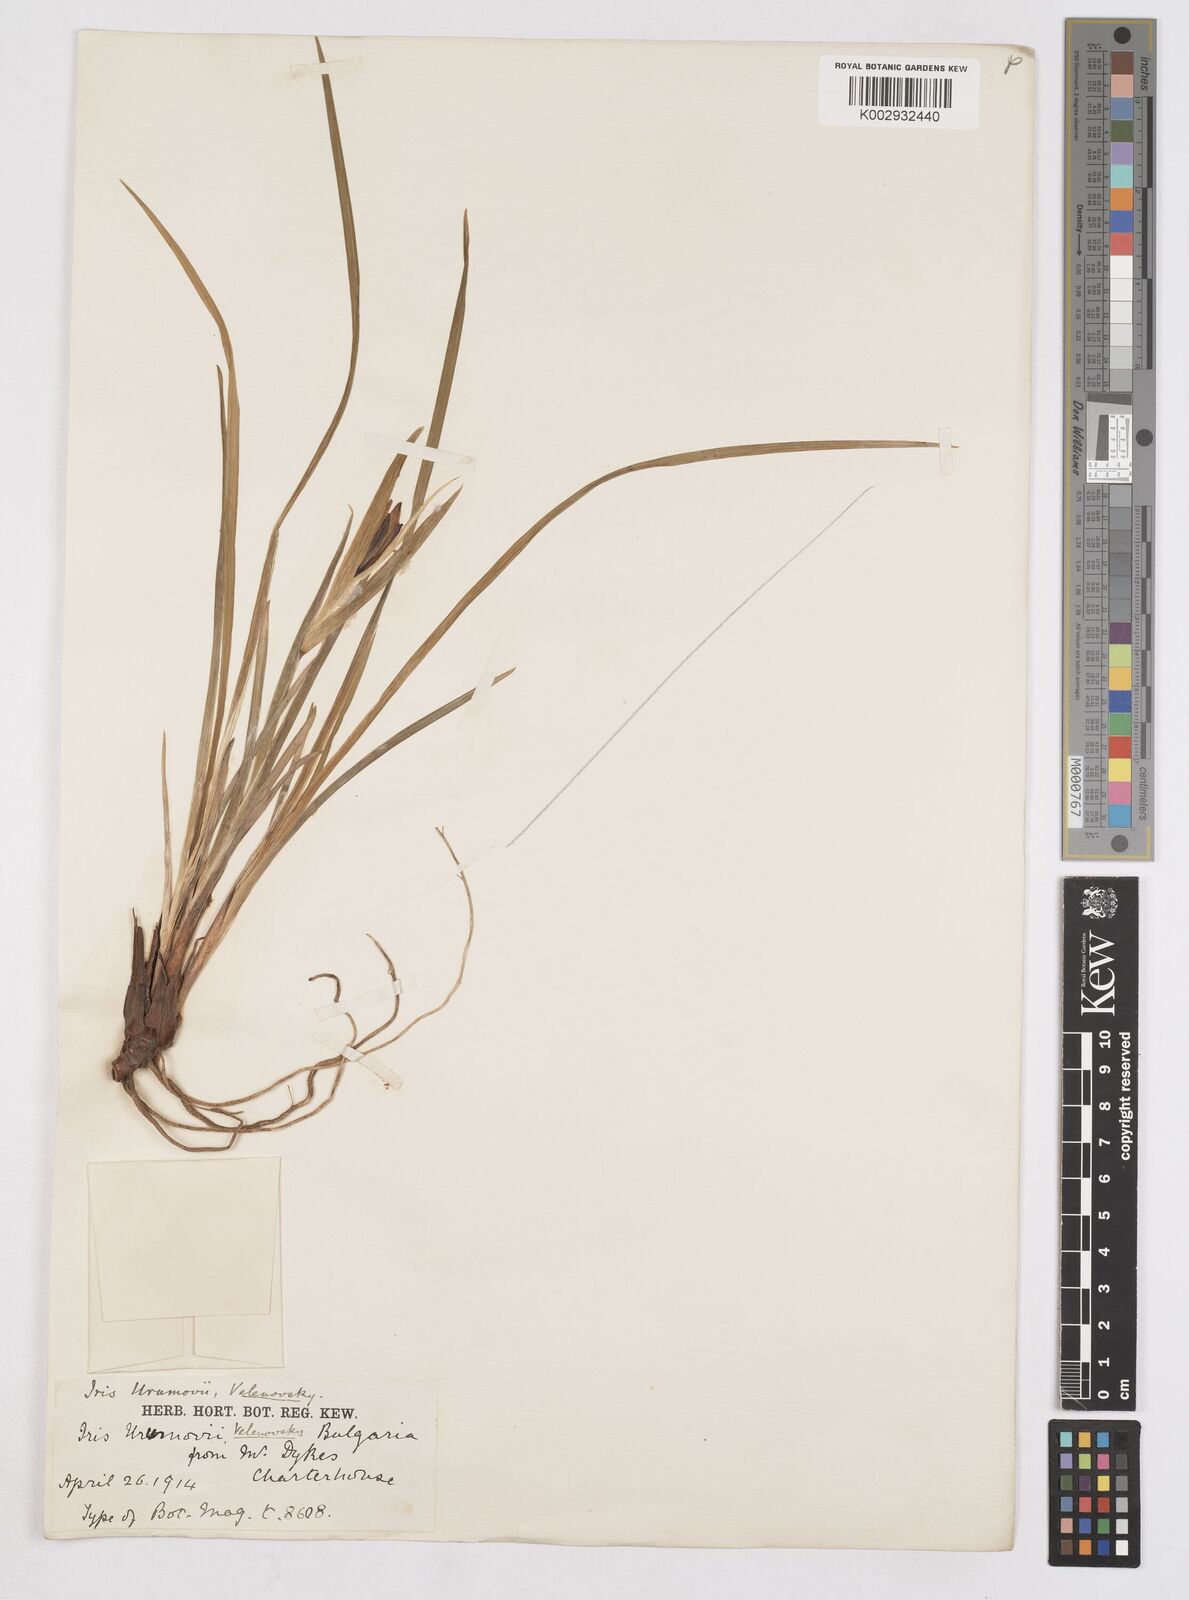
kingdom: Plantae
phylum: Tracheophyta
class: Liliopsida
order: Asparagales
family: Iridaceae
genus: Iris
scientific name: Iris sintenisii
